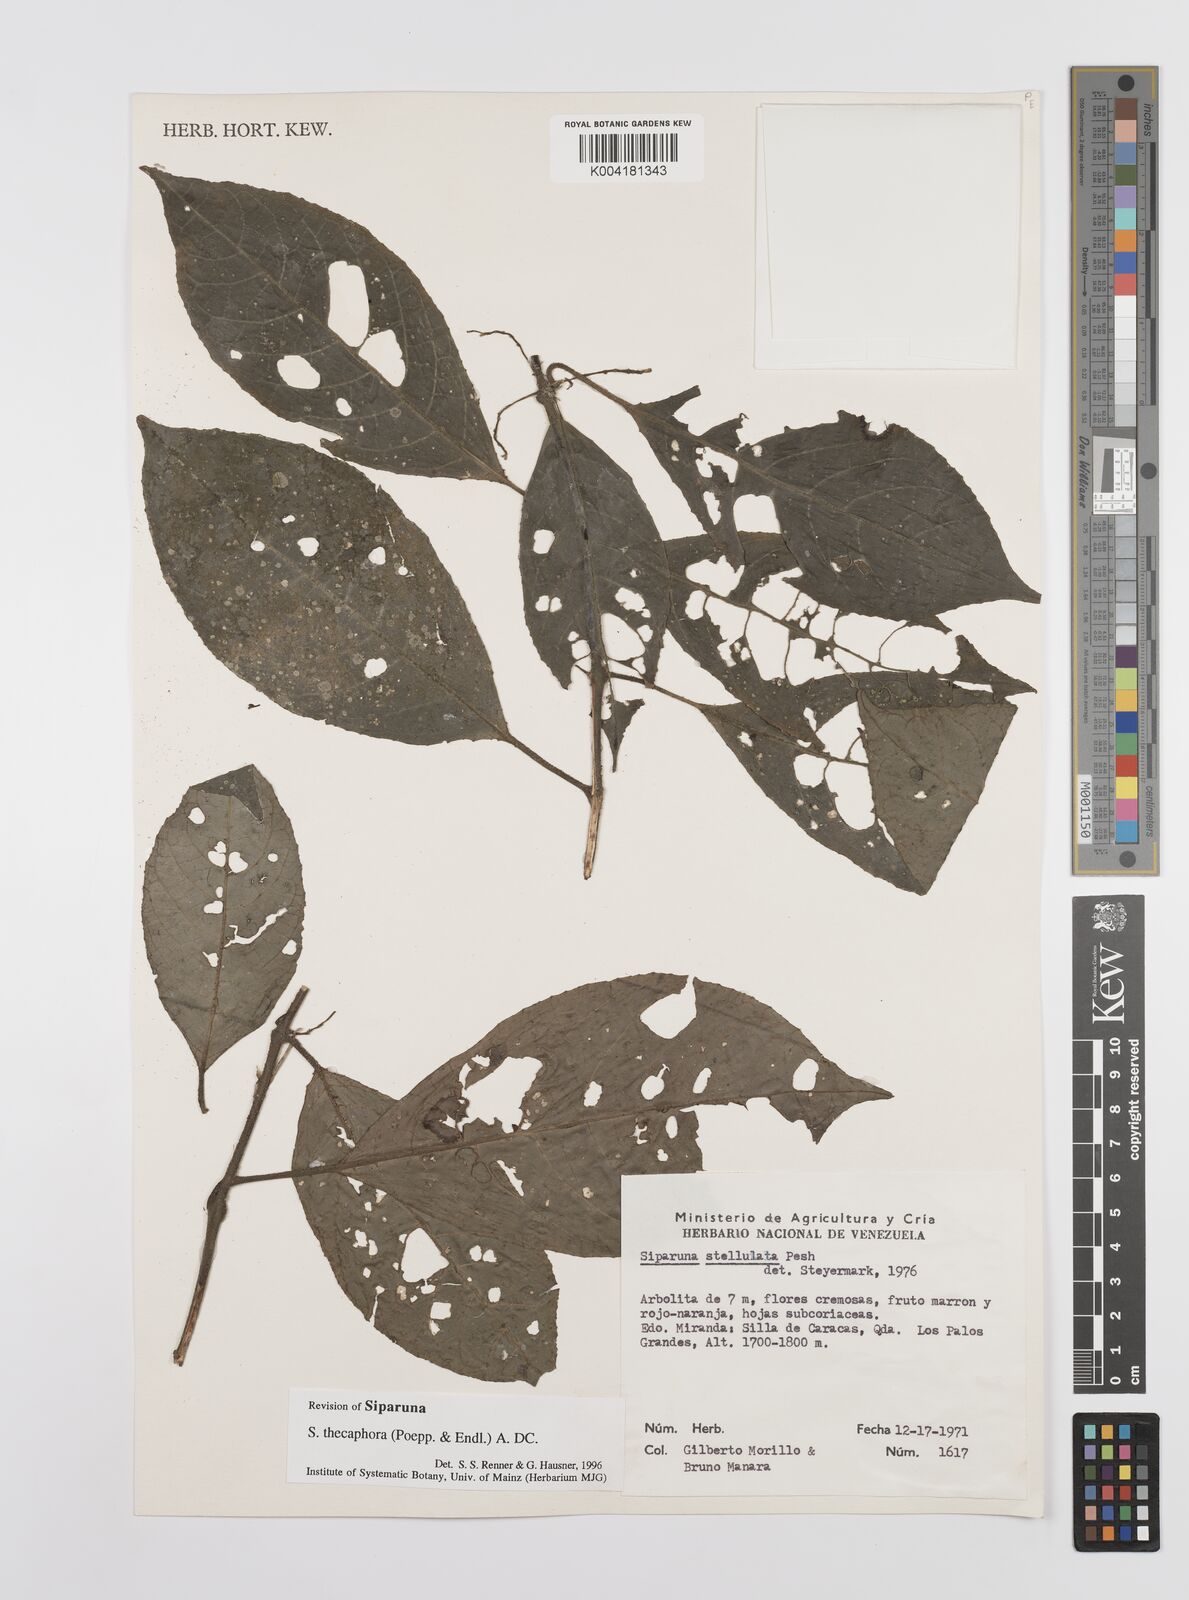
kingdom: Plantae
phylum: Tracheophyta
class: Magnoliopsida
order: Laurales
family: Siparunaceae
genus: Siparuna
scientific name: Siparuna thecaphora
